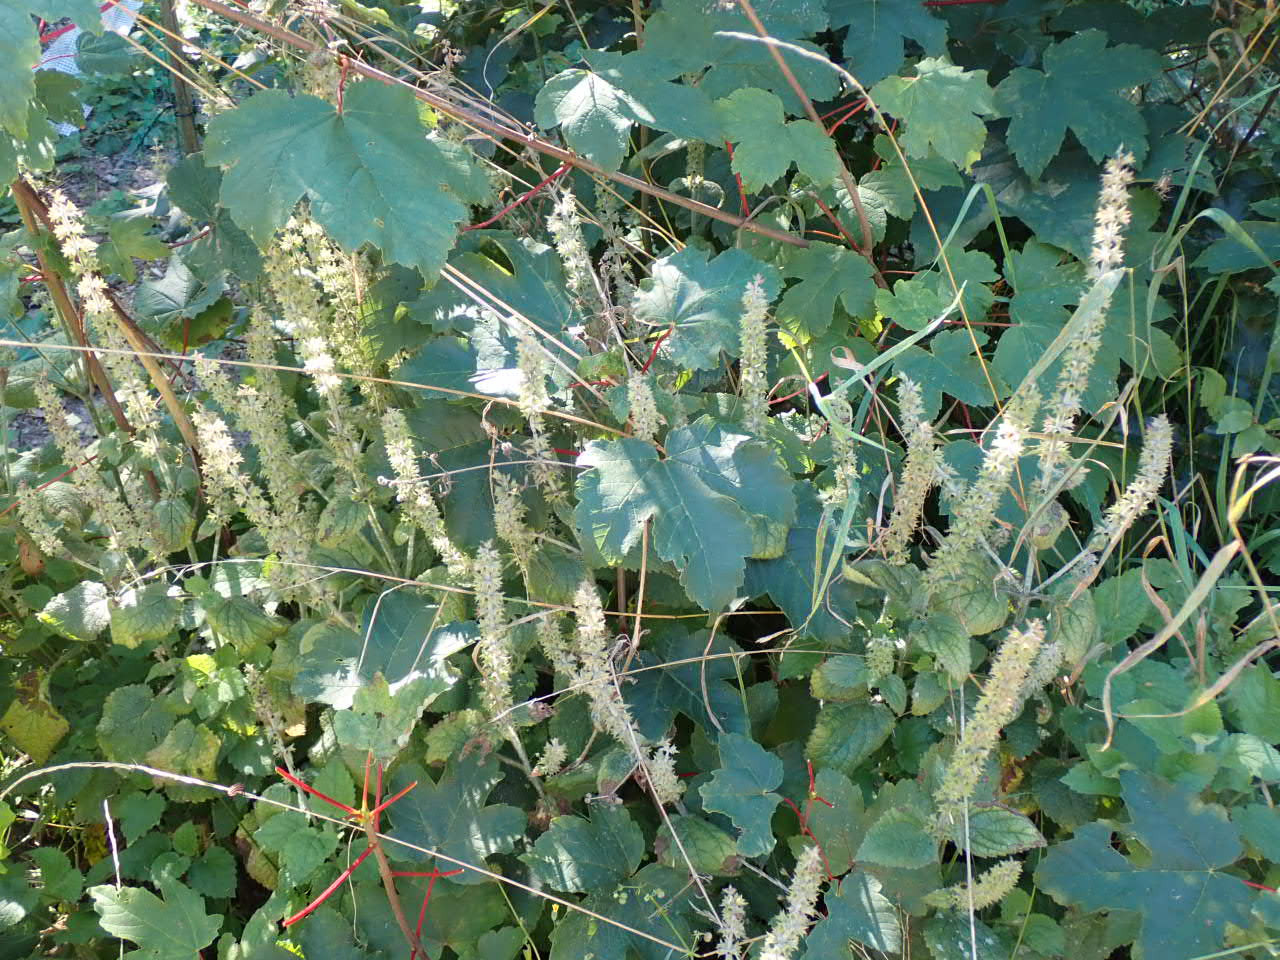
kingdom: Plantae
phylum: Tracheophyta
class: Magnoliopsida
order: Lamiales
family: Lamiaceae
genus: Stachys
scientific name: Stachys sylvatica
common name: Skov-galtetand
